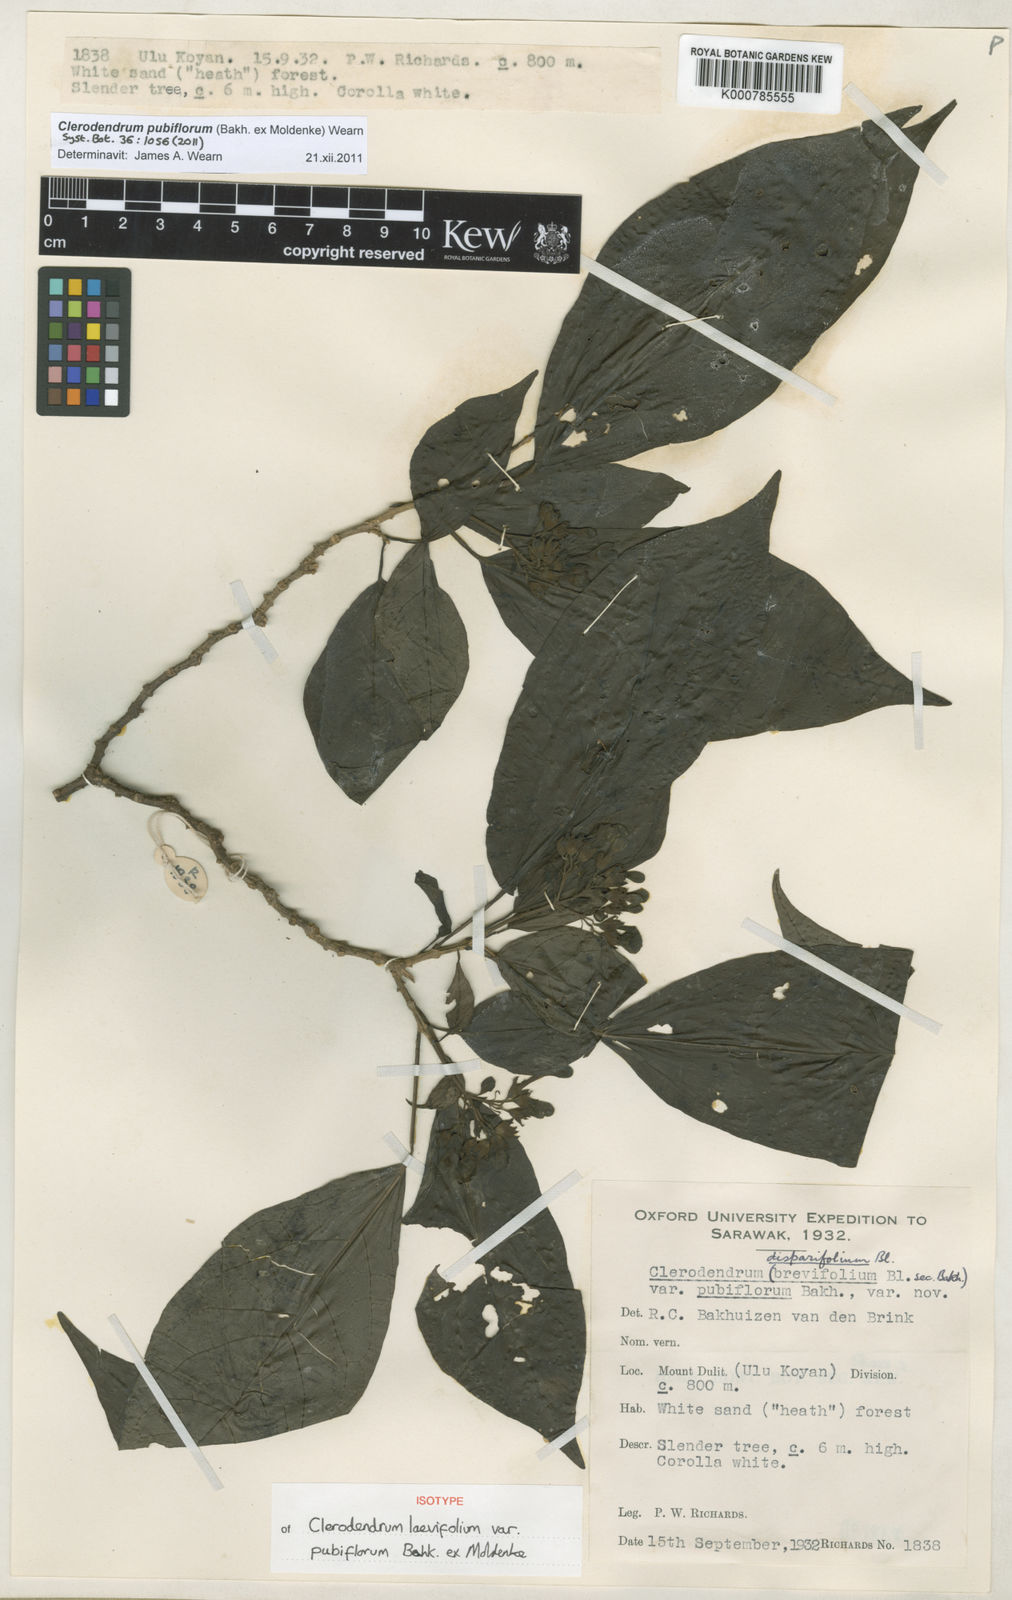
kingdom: Plantae
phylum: Tracheophyta
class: Magnoliopsida
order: Lamiales
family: Lamiaceae
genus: Clerodendrum
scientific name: Clerodendrum
